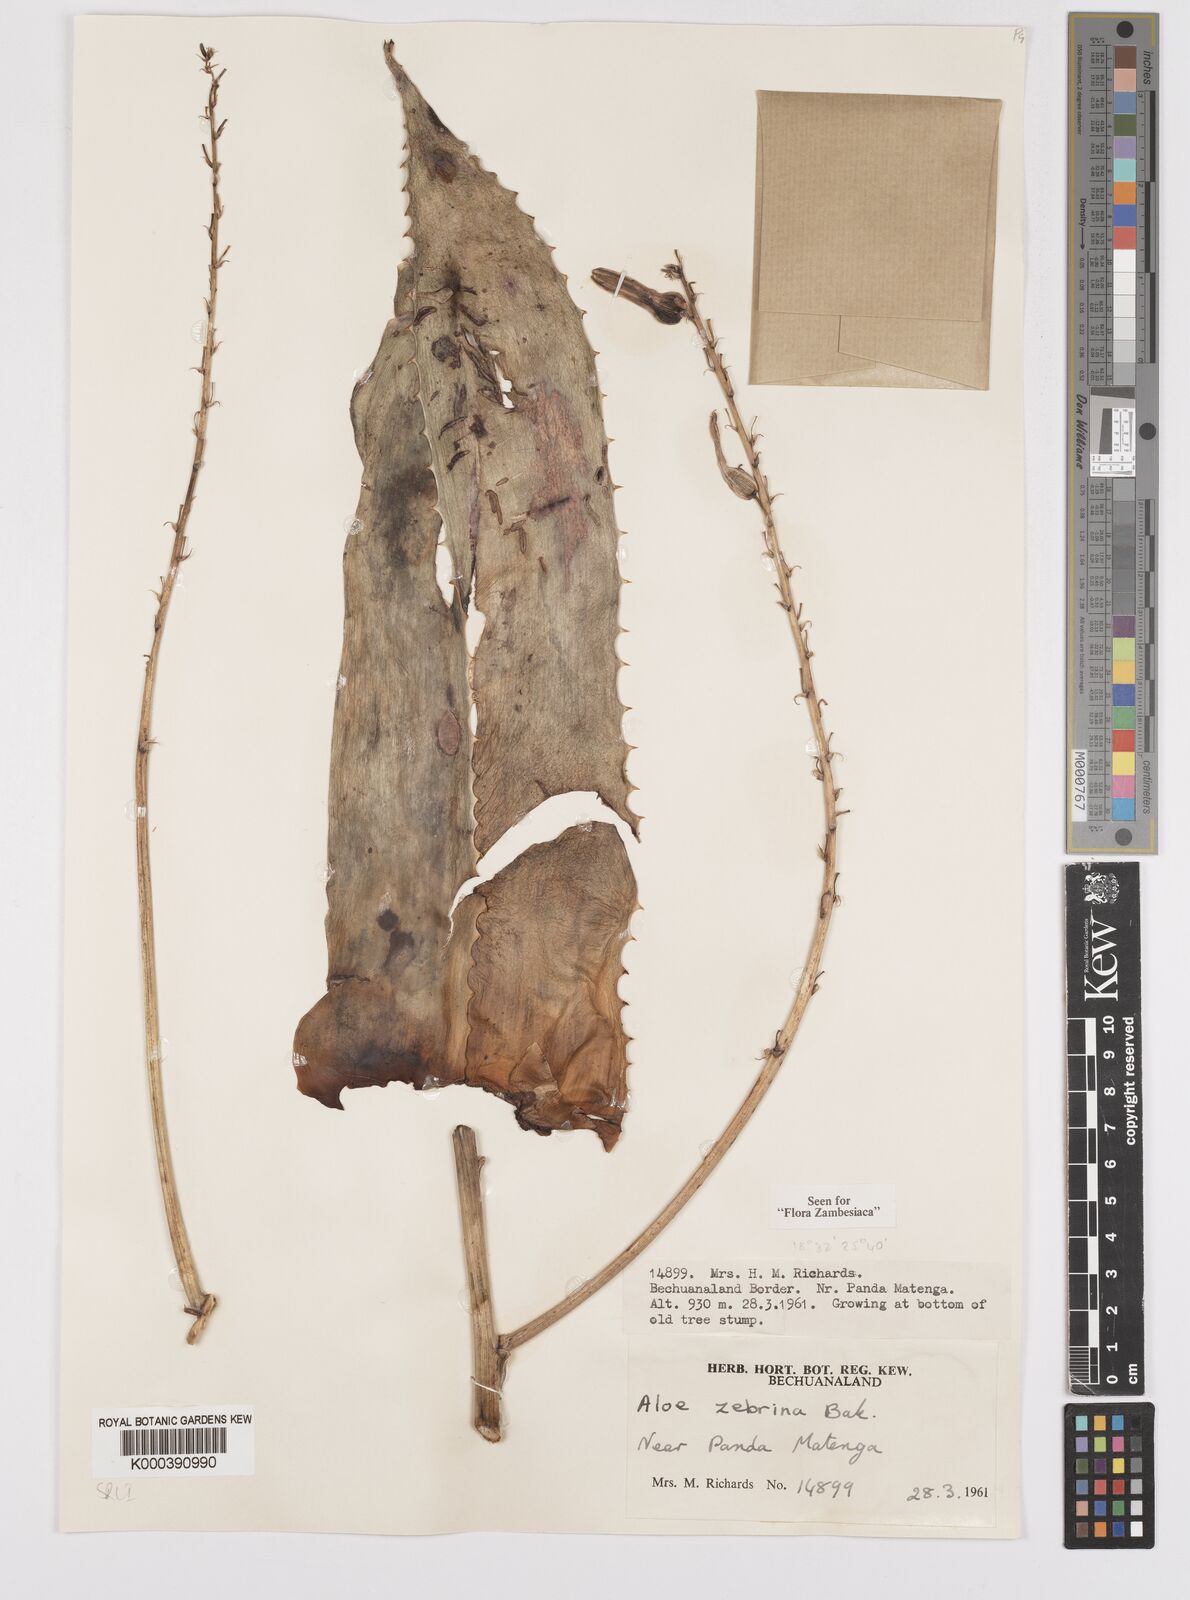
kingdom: Plantae
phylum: Tracheophyta
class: Liliopsida
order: Asparagales
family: Asphodelaceae
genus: Aloe
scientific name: Aloe zebrina
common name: Zebra-leaf aloe
